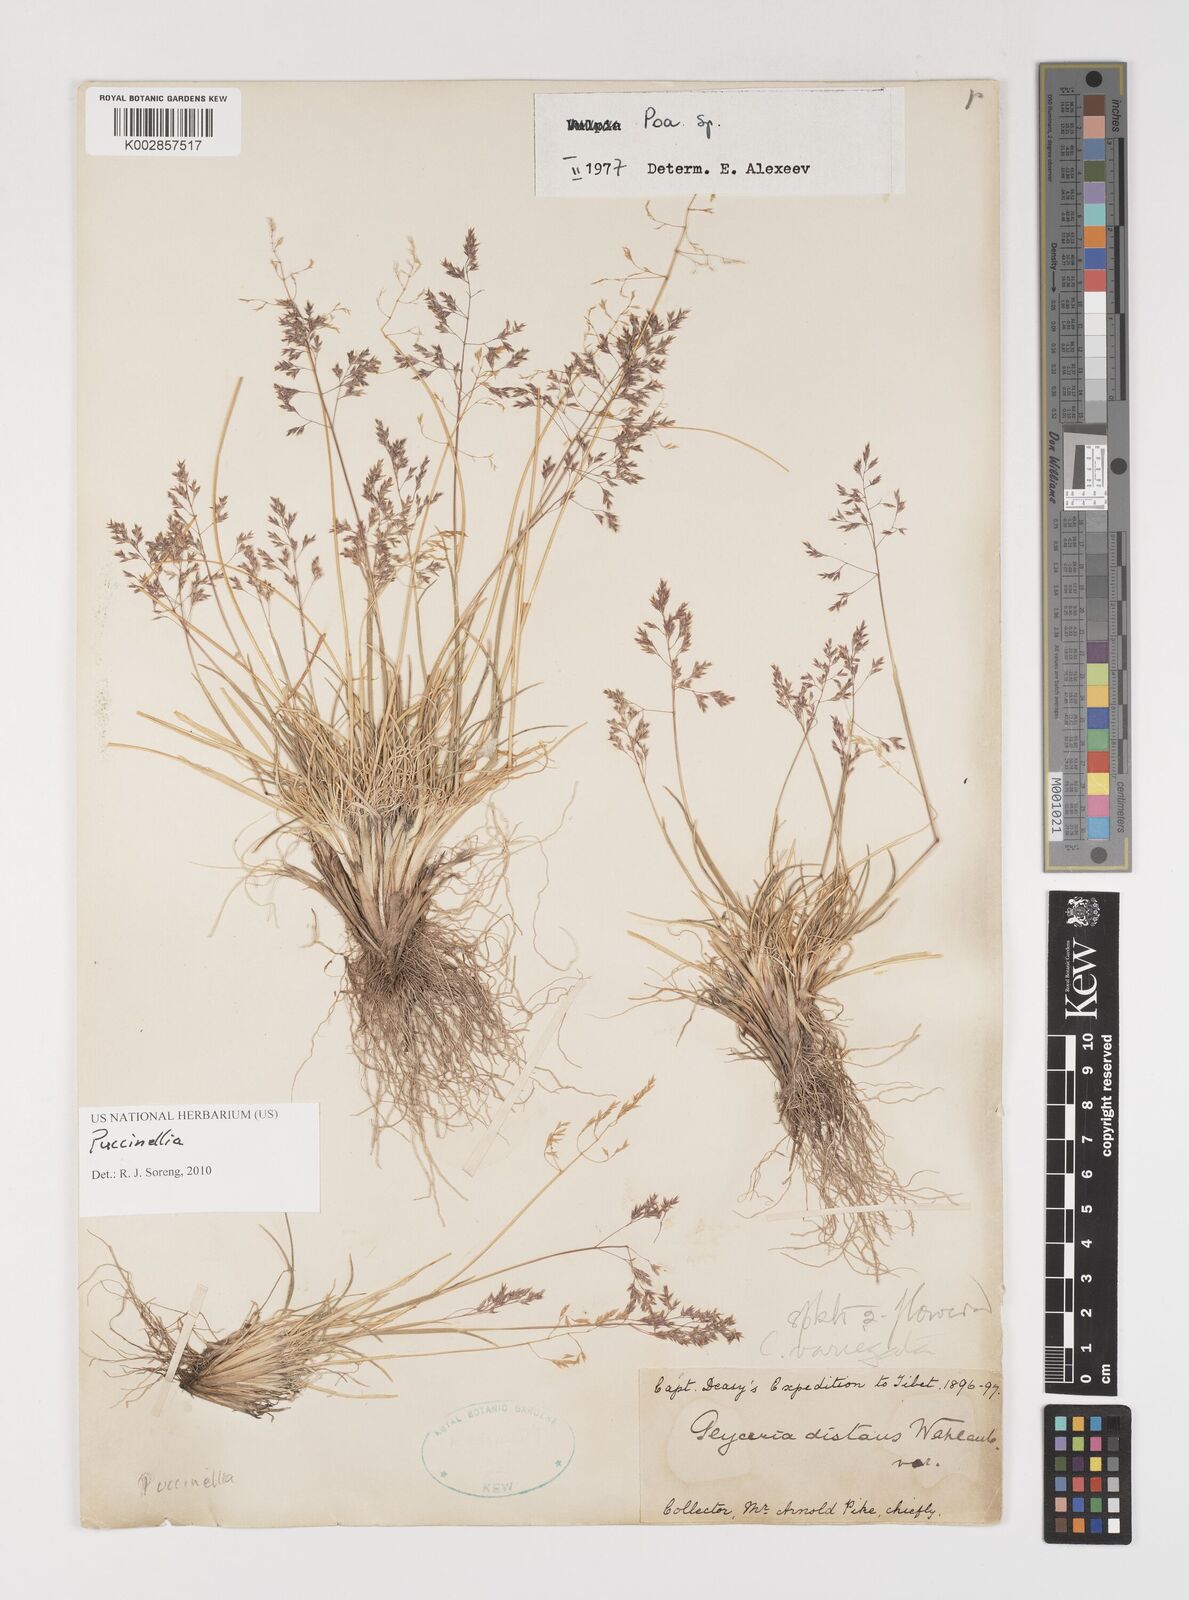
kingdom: Plantae
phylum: Tracheophyta
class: Liliopsida
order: Poales
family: Poaceae
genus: Puccinellia
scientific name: Puccinellia
